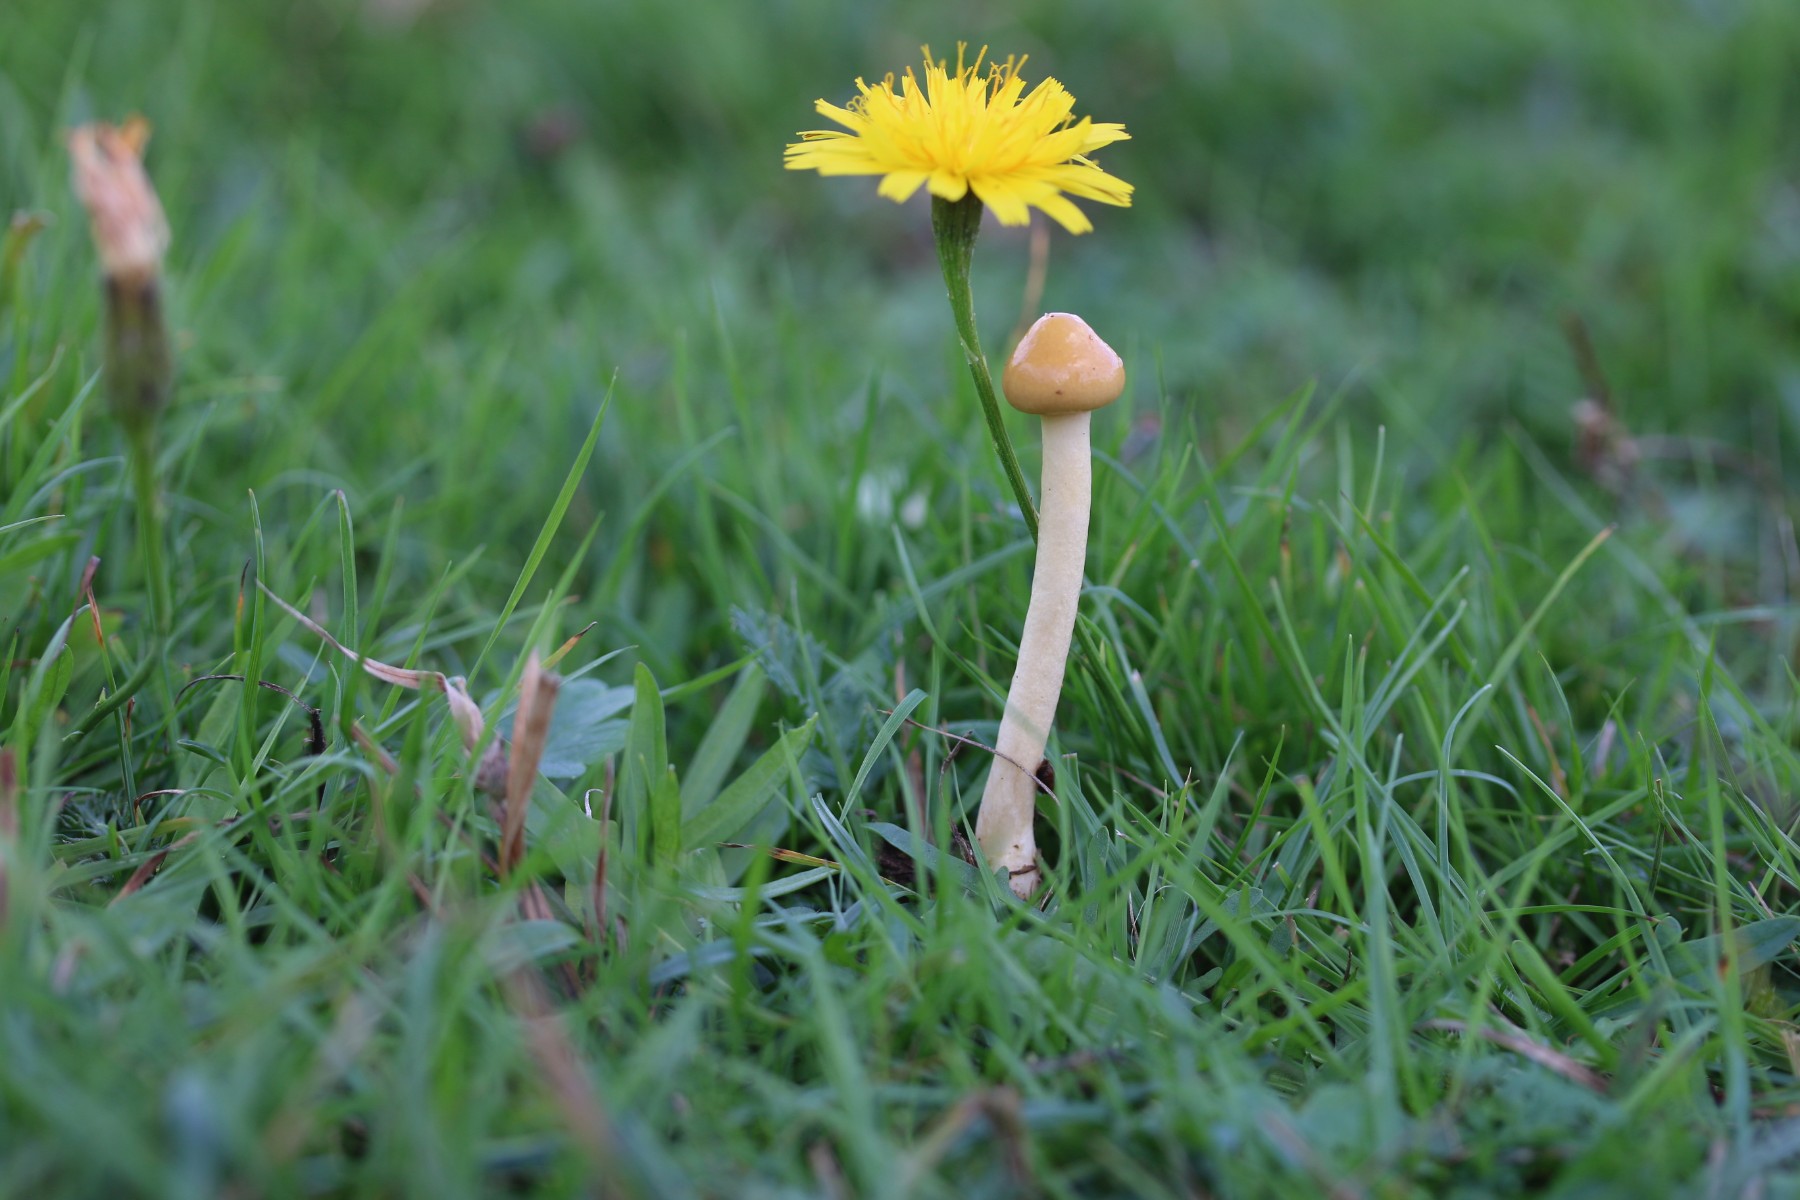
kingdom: Fungi
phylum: Basidiomycota
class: Agaricomycetes
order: Agaricales
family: Strophariaceae
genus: Protostropharia
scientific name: Protostropharia semiglobata
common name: halvkugleformet bredblad
